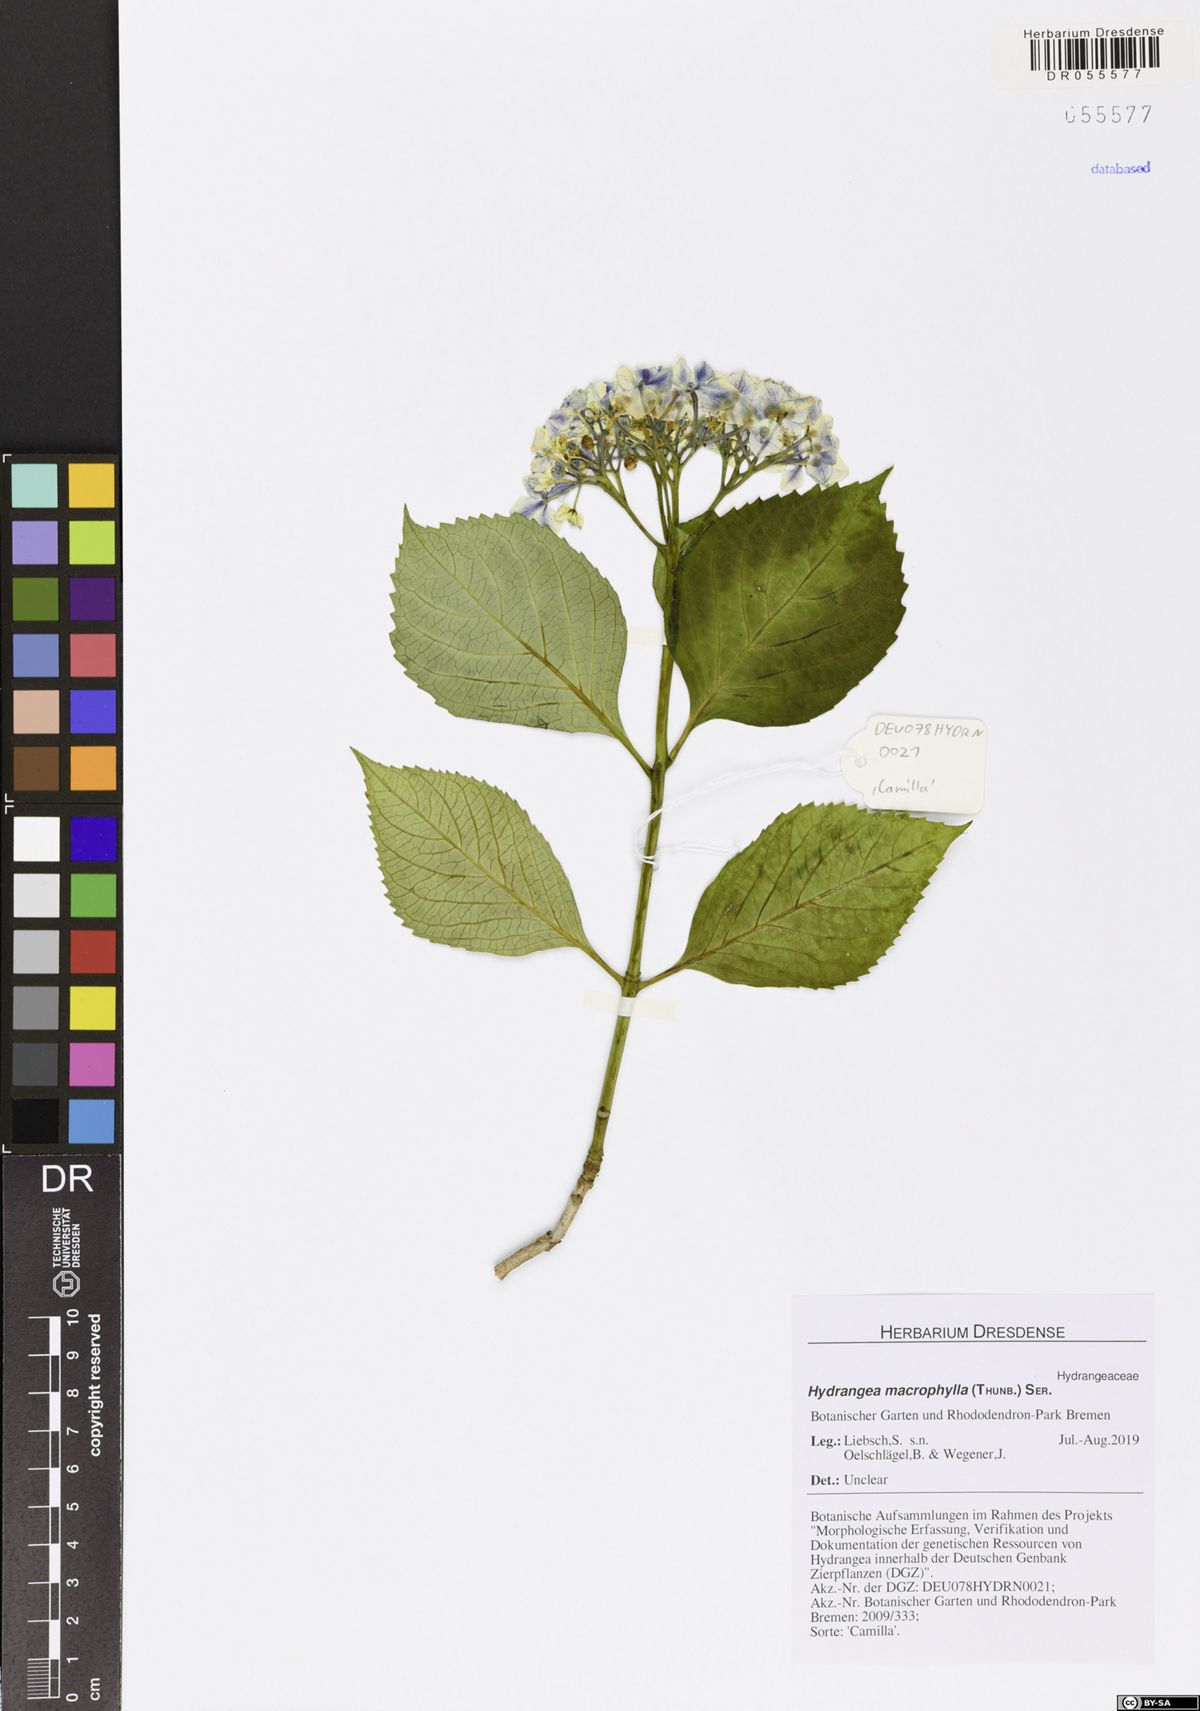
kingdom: Plantae
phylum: Tracheophyta
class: Magnoliopsida
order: Cornales
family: Hydrangeaceae
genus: Hydrangea
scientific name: Hydrangea macrophylla
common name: Hydrangea
